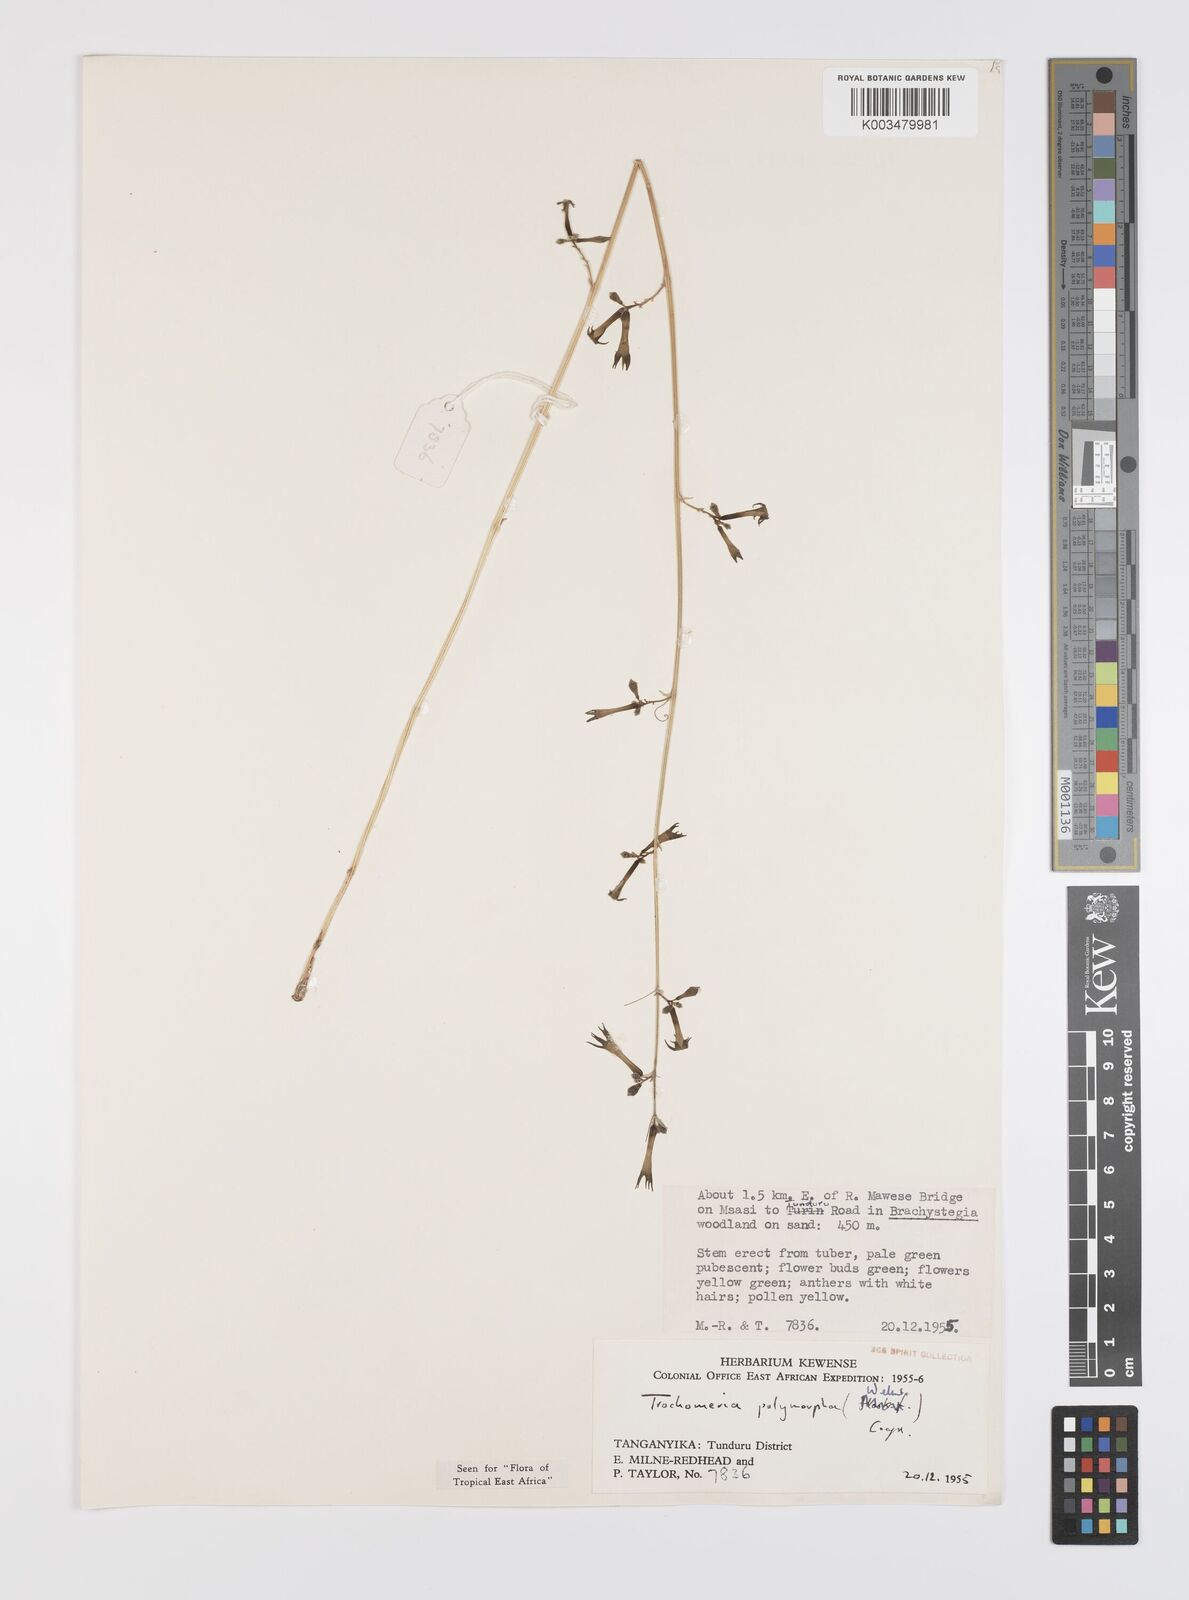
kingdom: Plantae
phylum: Tracheophyta
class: Magnoliopsida
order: Cucurbitales
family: Cucurbitaceae
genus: Trochomeria
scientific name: Trochomeria polymorpha
